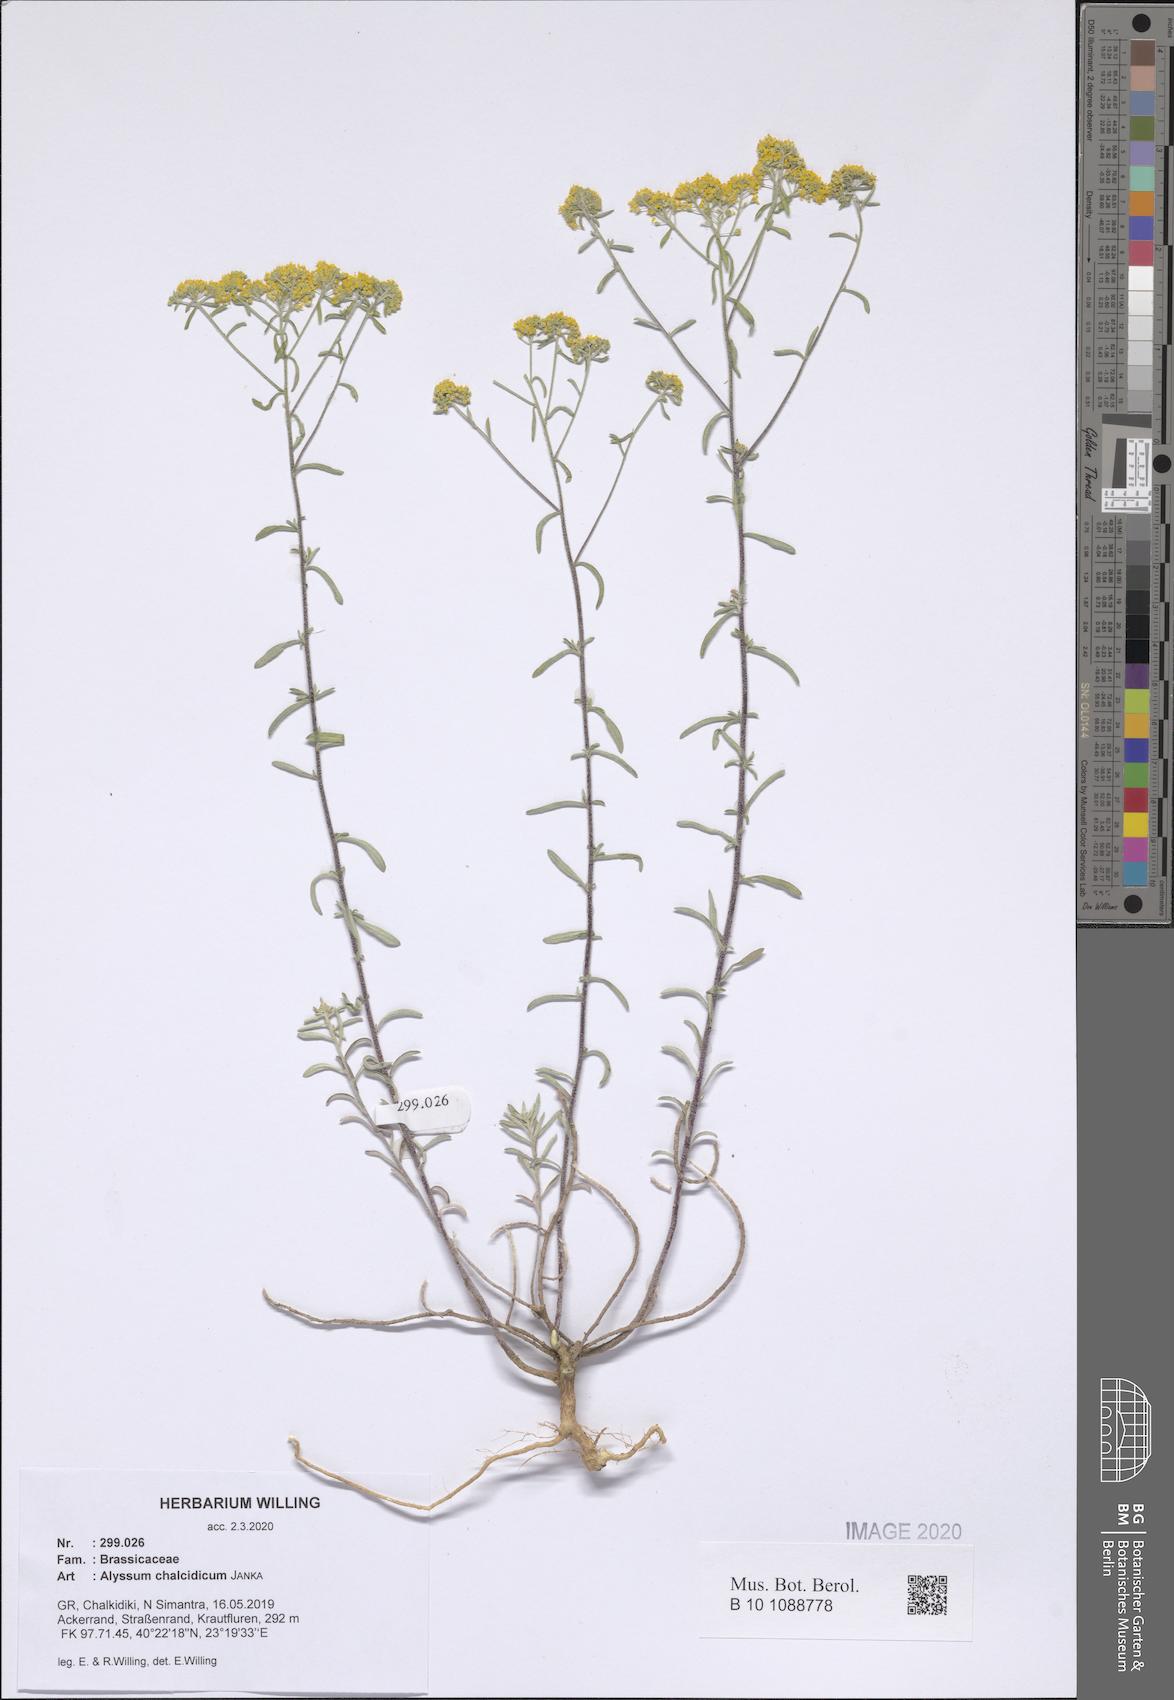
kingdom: Plantae
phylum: Tracheophyta
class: Magnoliopsida
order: Brassicales
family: Brassicaceae
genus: Odontarrhena
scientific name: Odontarrhena chalcidica
